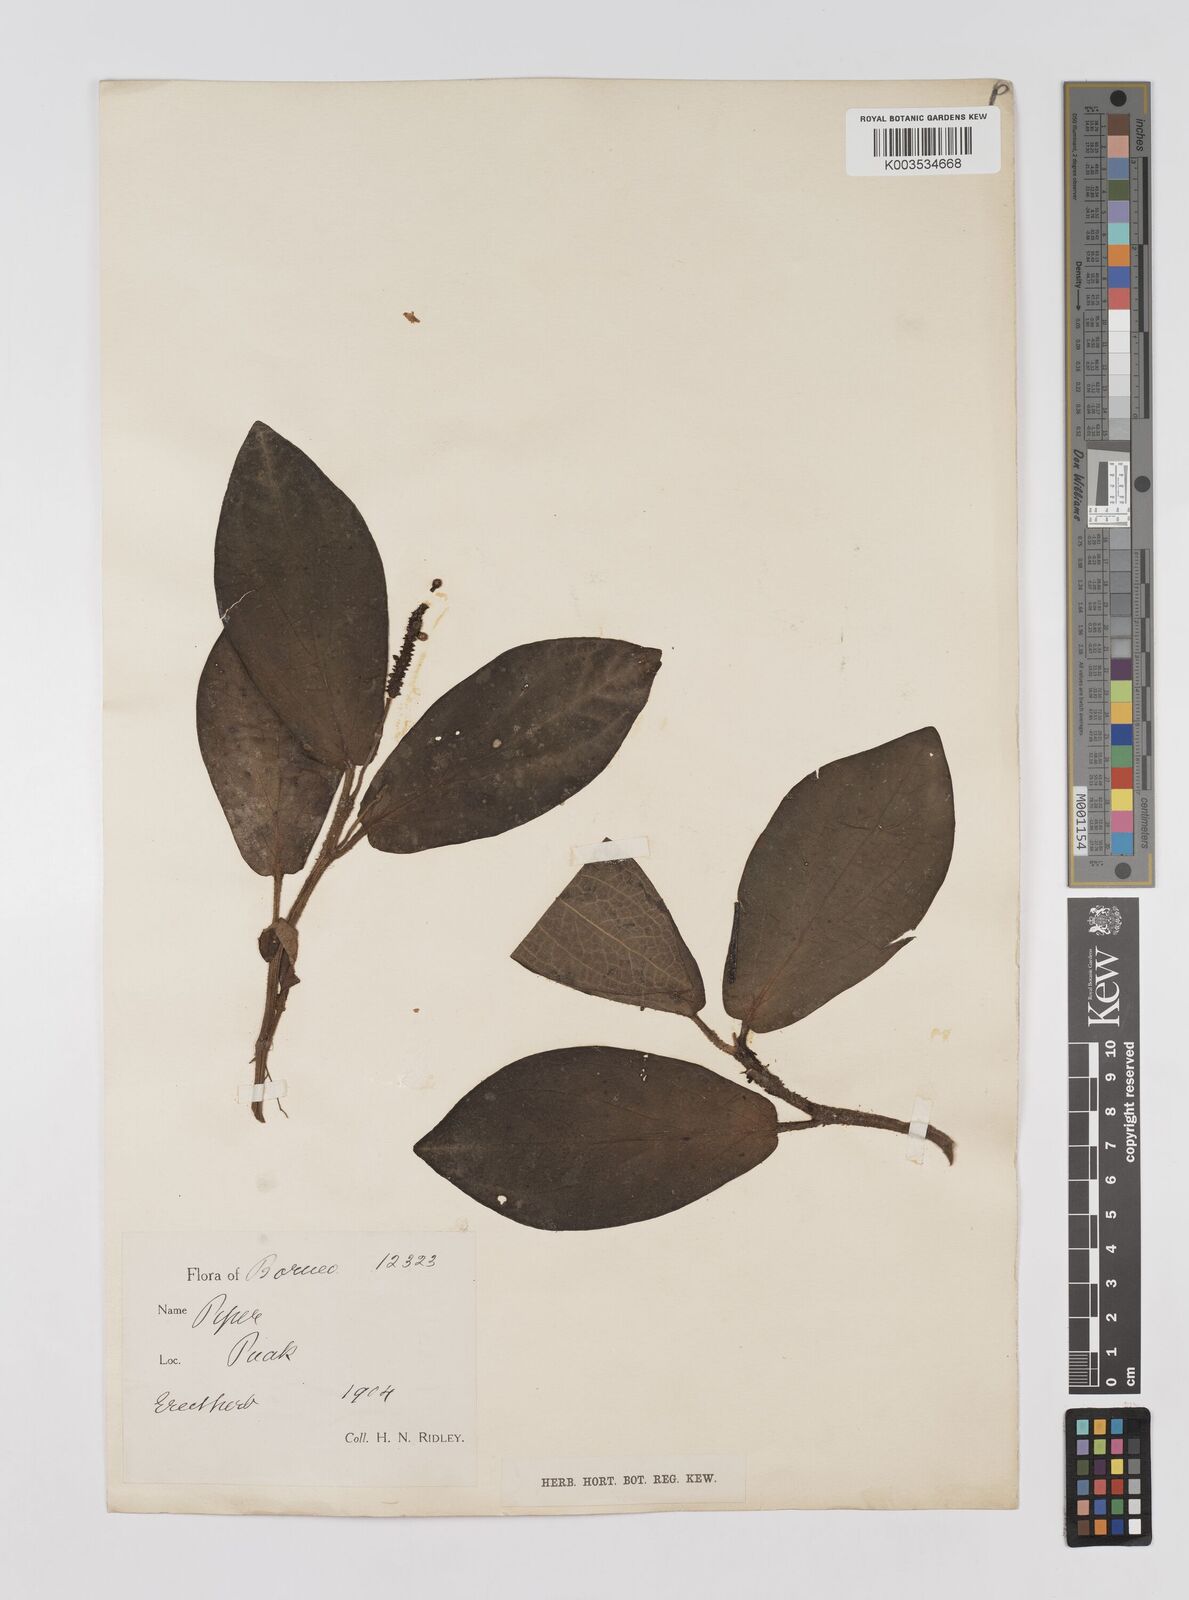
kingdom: Plantae
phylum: Tracheophyta
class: Magnoliopsida
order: Piperales
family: Piperaceae
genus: Piper
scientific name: Piper muricatum
